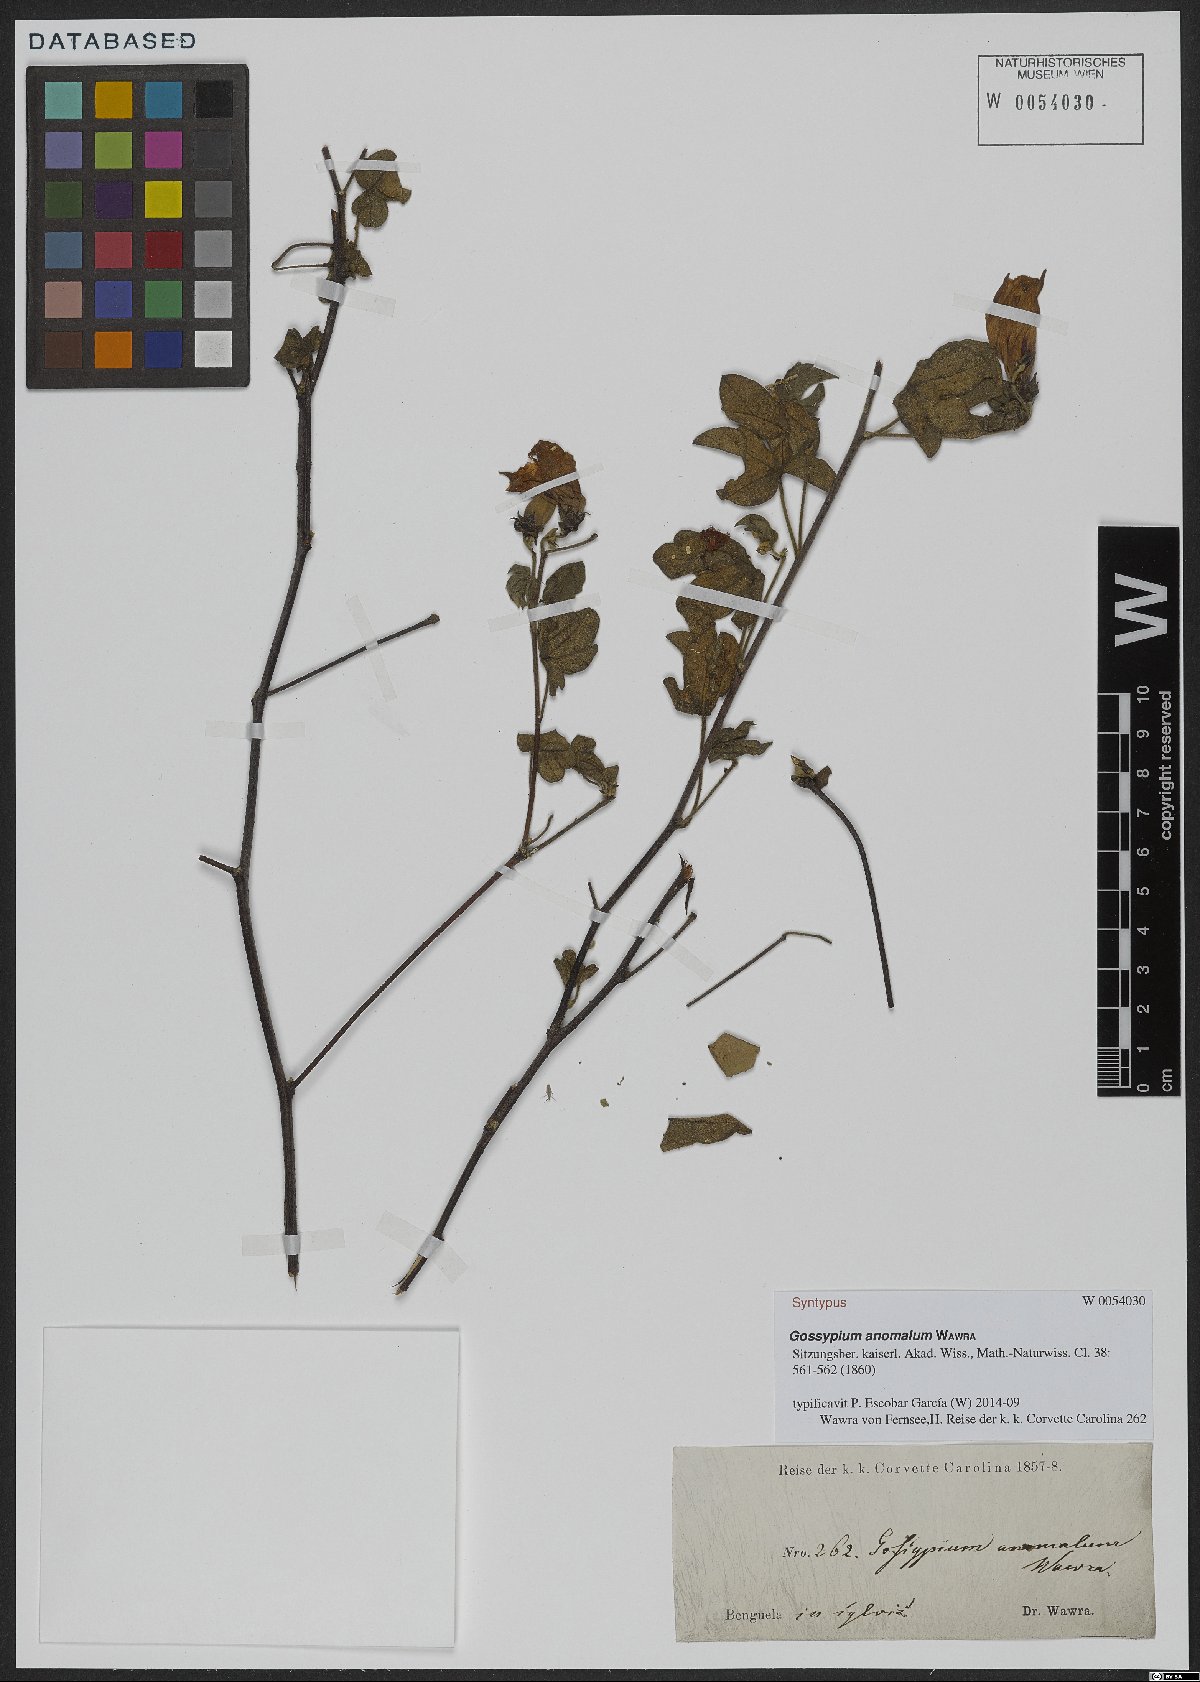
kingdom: Plantae
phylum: Tracheophyta
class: Magnoliopsida
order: Malvales
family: Malvaceae
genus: Gossypium
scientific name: Gossypium anomalum
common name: African wild cotton
